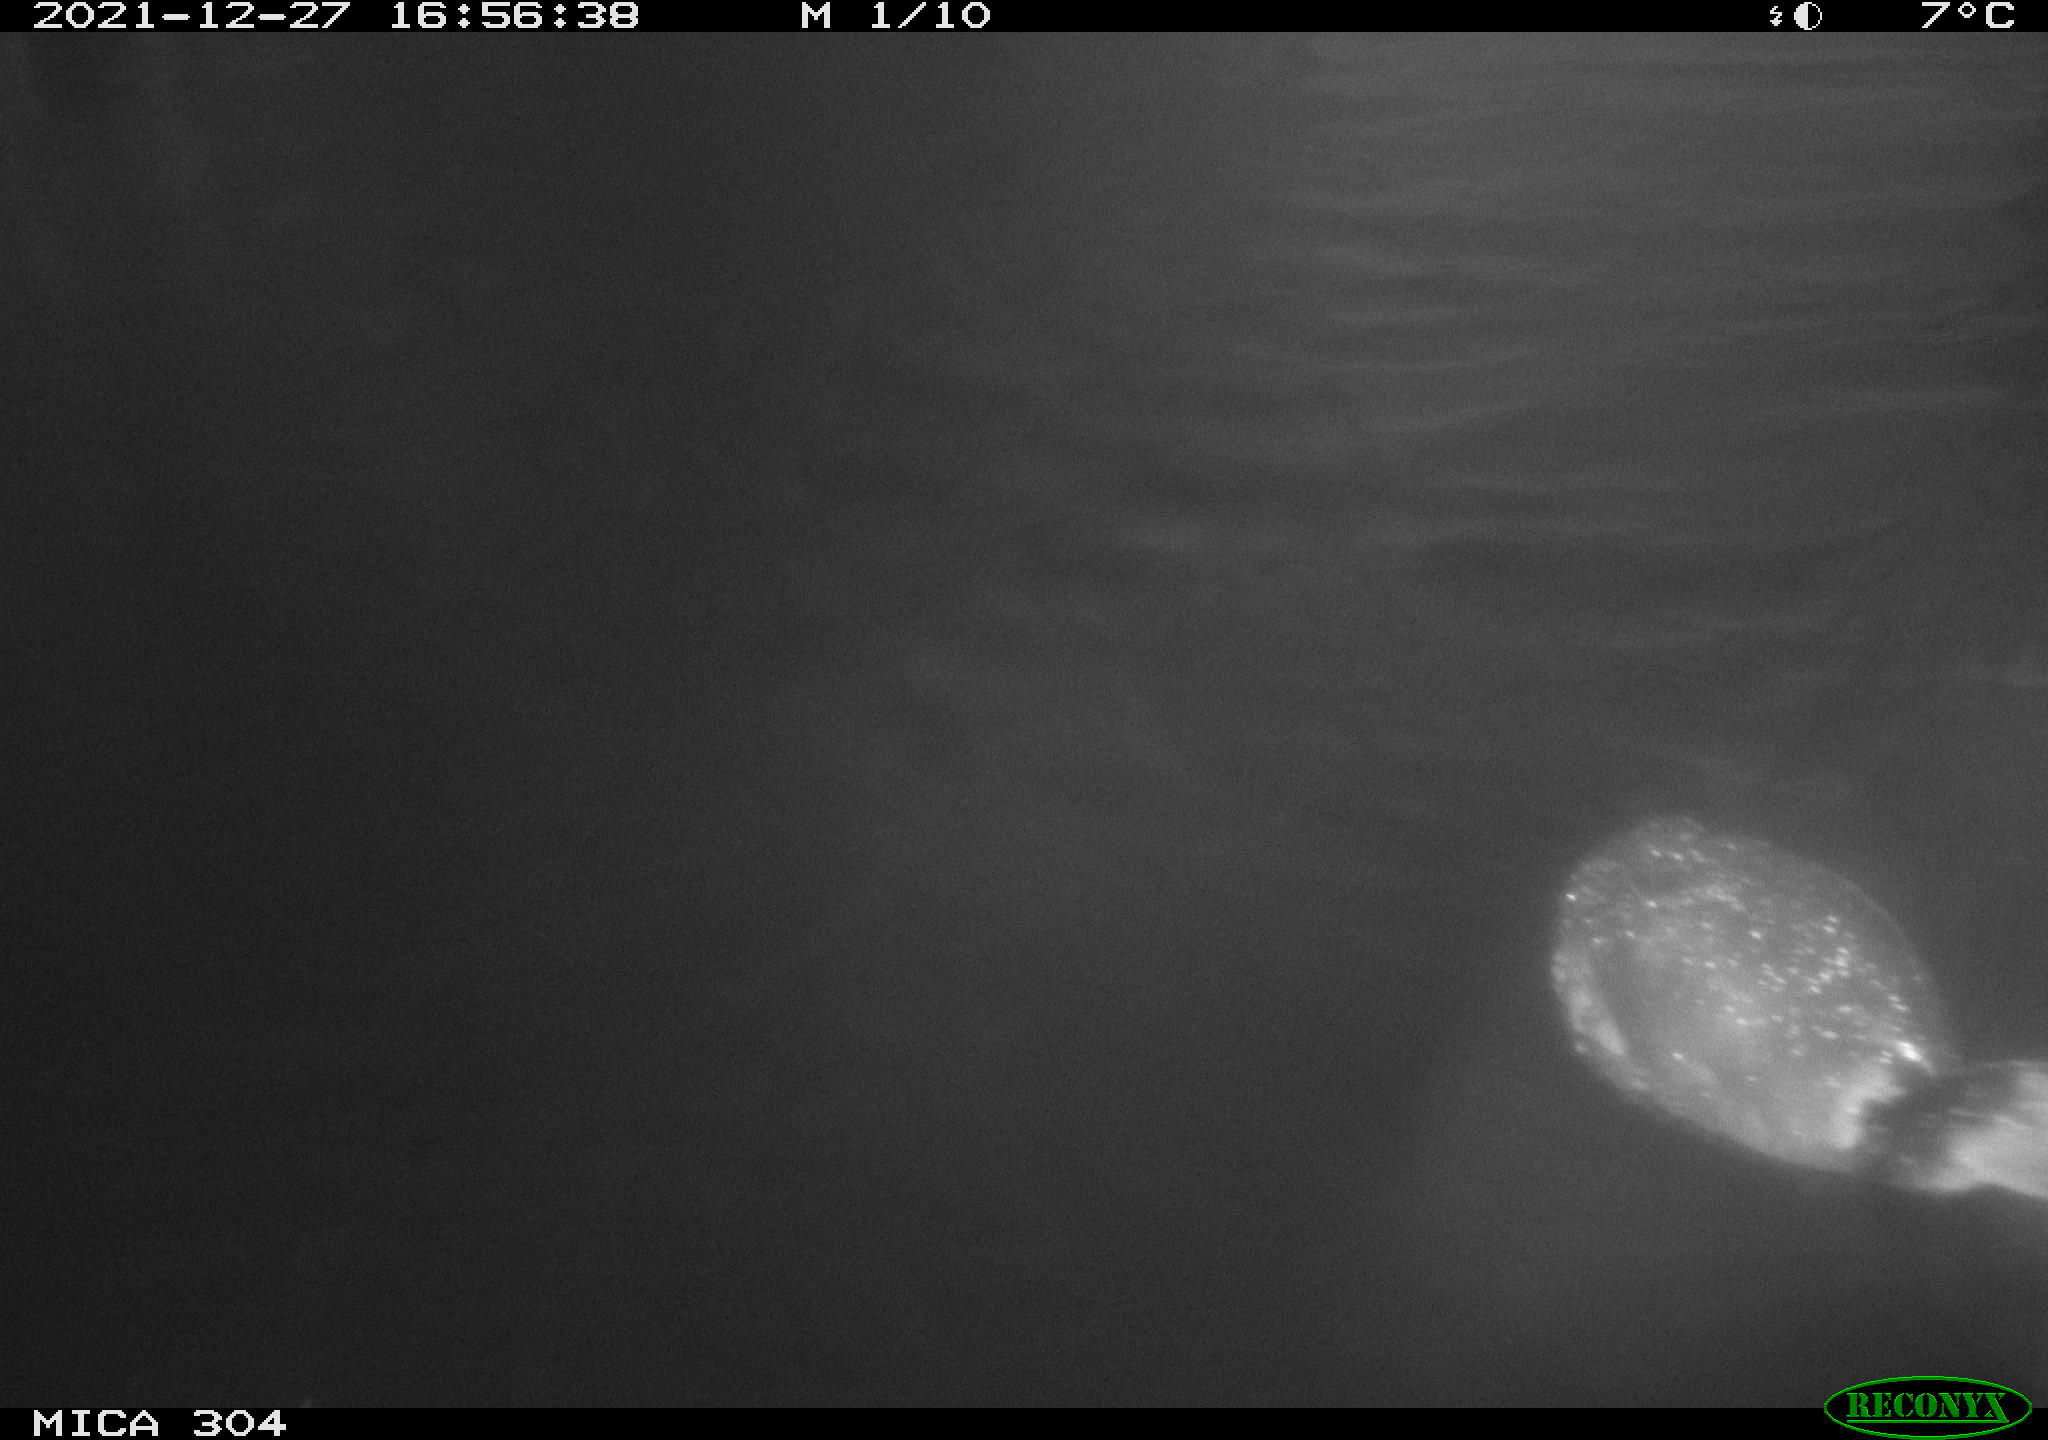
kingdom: Animalia
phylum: Chordata
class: Aves
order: Gruiformes
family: Rallidae
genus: Fulica
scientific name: Fulica atra
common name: Eurasian coot
